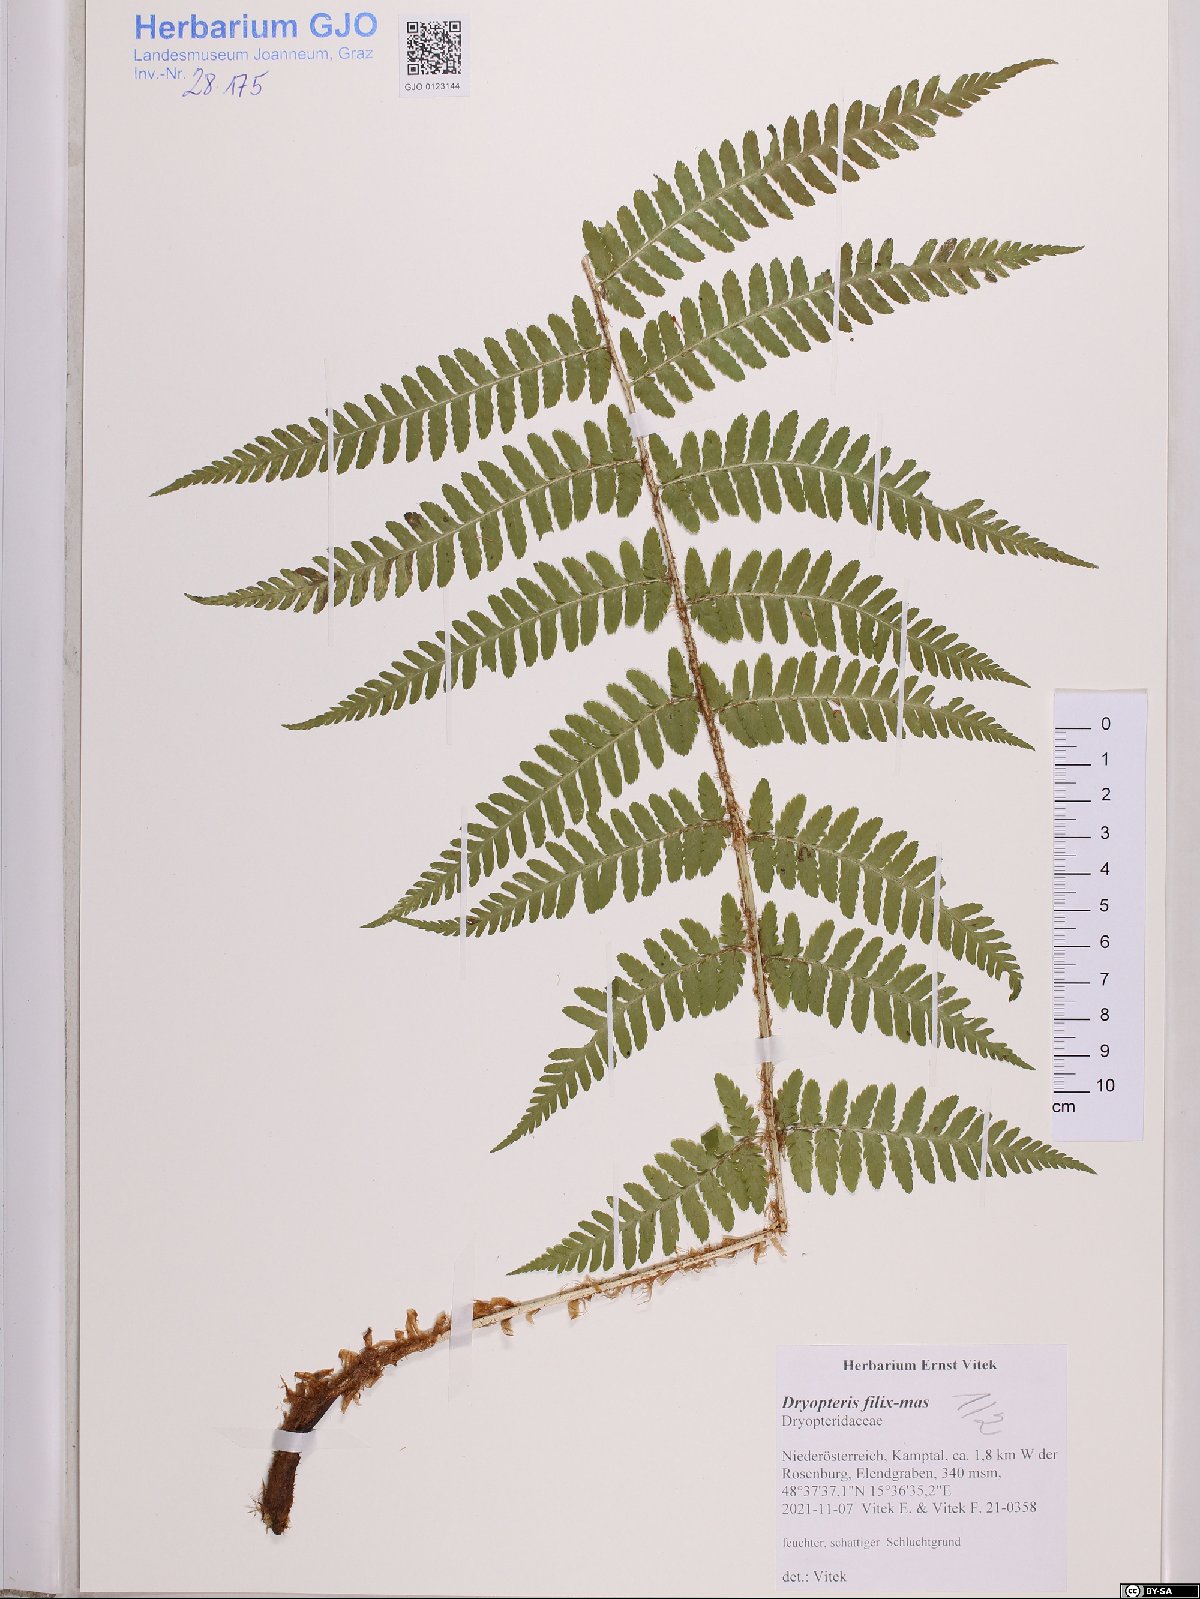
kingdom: Plantae
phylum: Tracheophyta
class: Polypodiopsida
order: Polypodiales
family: Dryopteridaceae
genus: Dryopteris
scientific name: Dryopteris filix-mas
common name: Male fern
